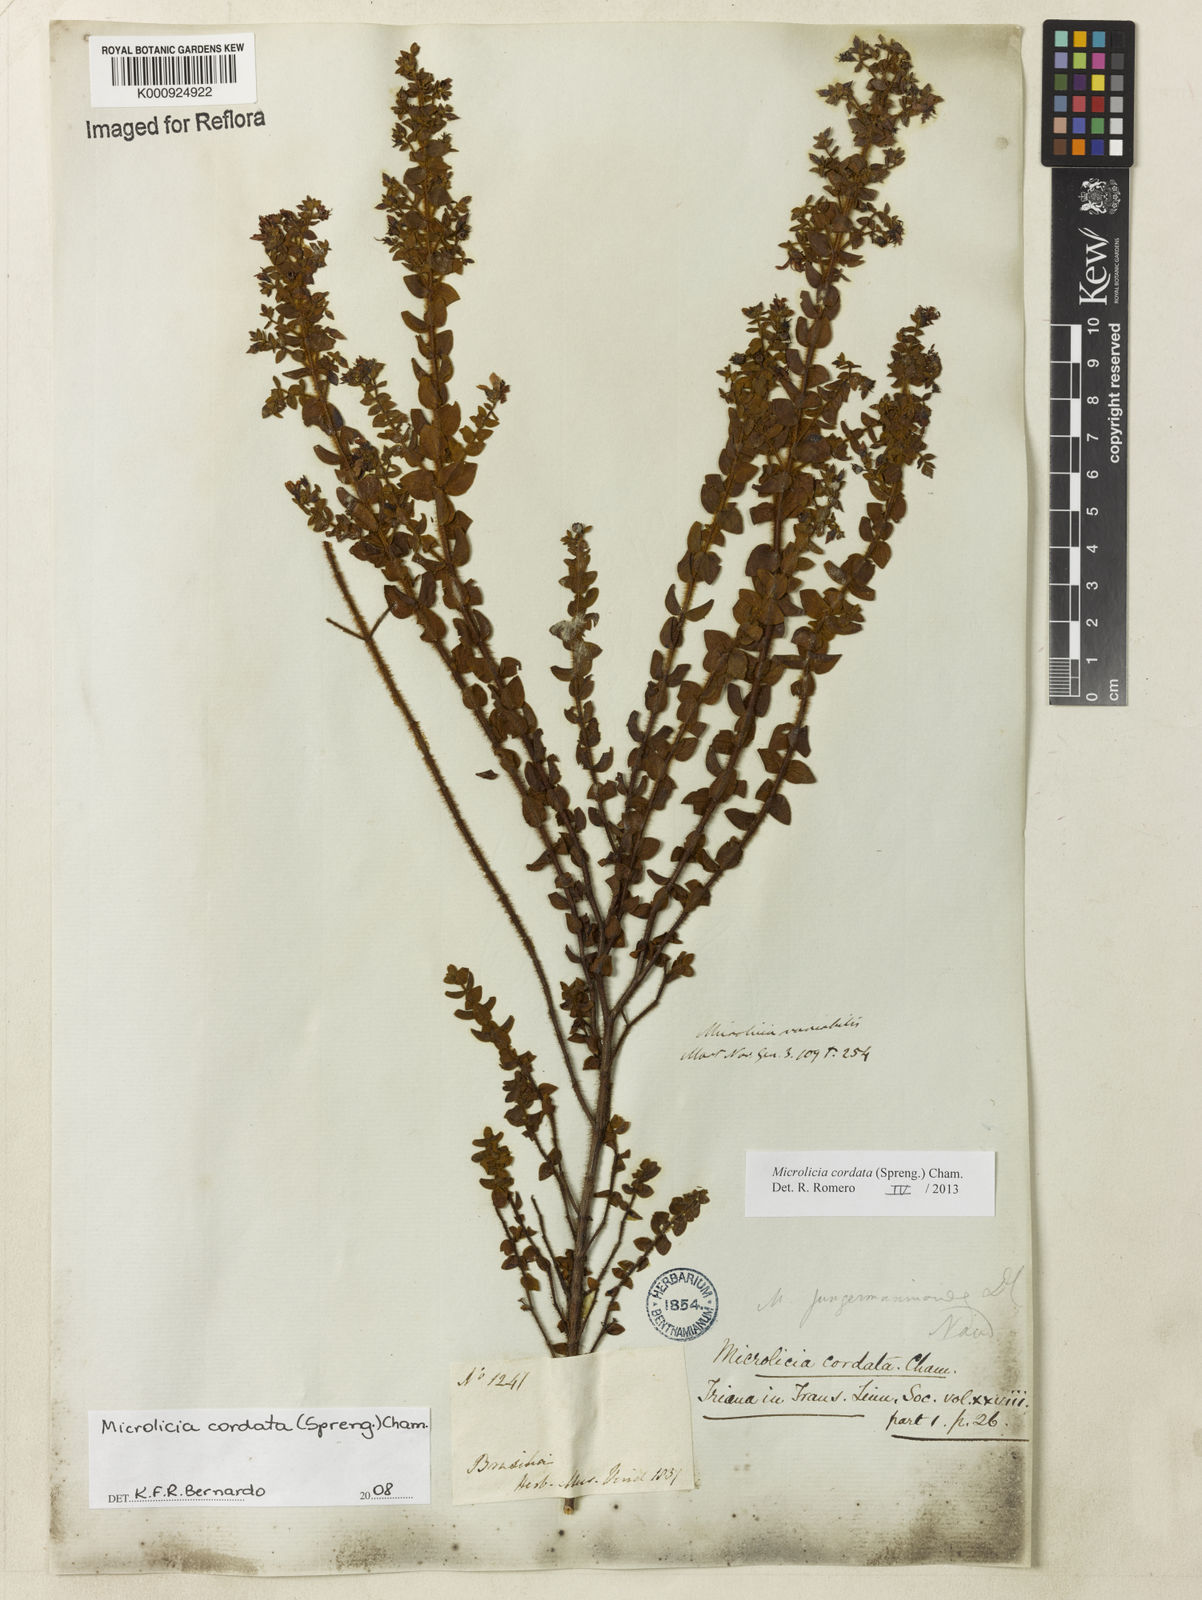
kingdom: Plantae
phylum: Tracheophyta
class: Magnoliopsida
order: Myrtales
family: Melastomataceae
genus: Microlicia
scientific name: Microlicia cordata
